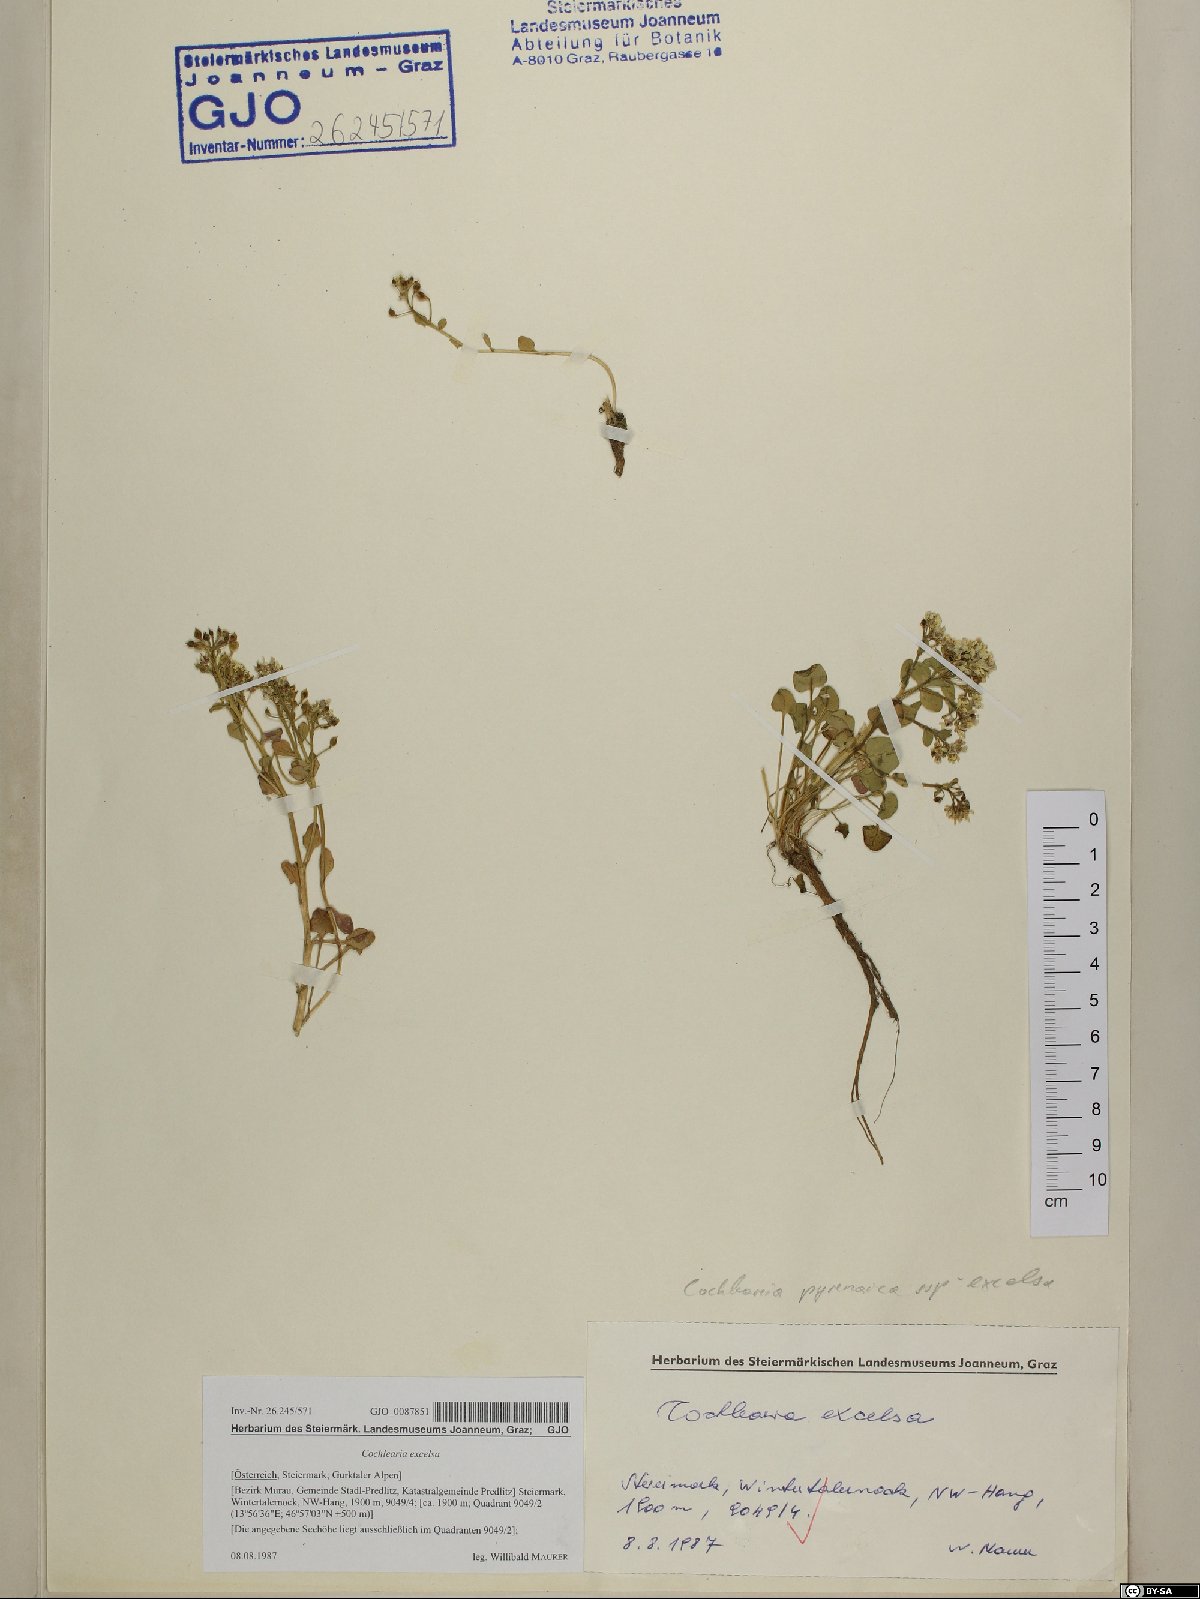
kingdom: Plantae
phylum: Tracheophyta
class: Magnoliopsida
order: Brassicales
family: Brassicaceae
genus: Cochlearia
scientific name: Cochlearia pyrenaica
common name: Upland scurvy-grass
